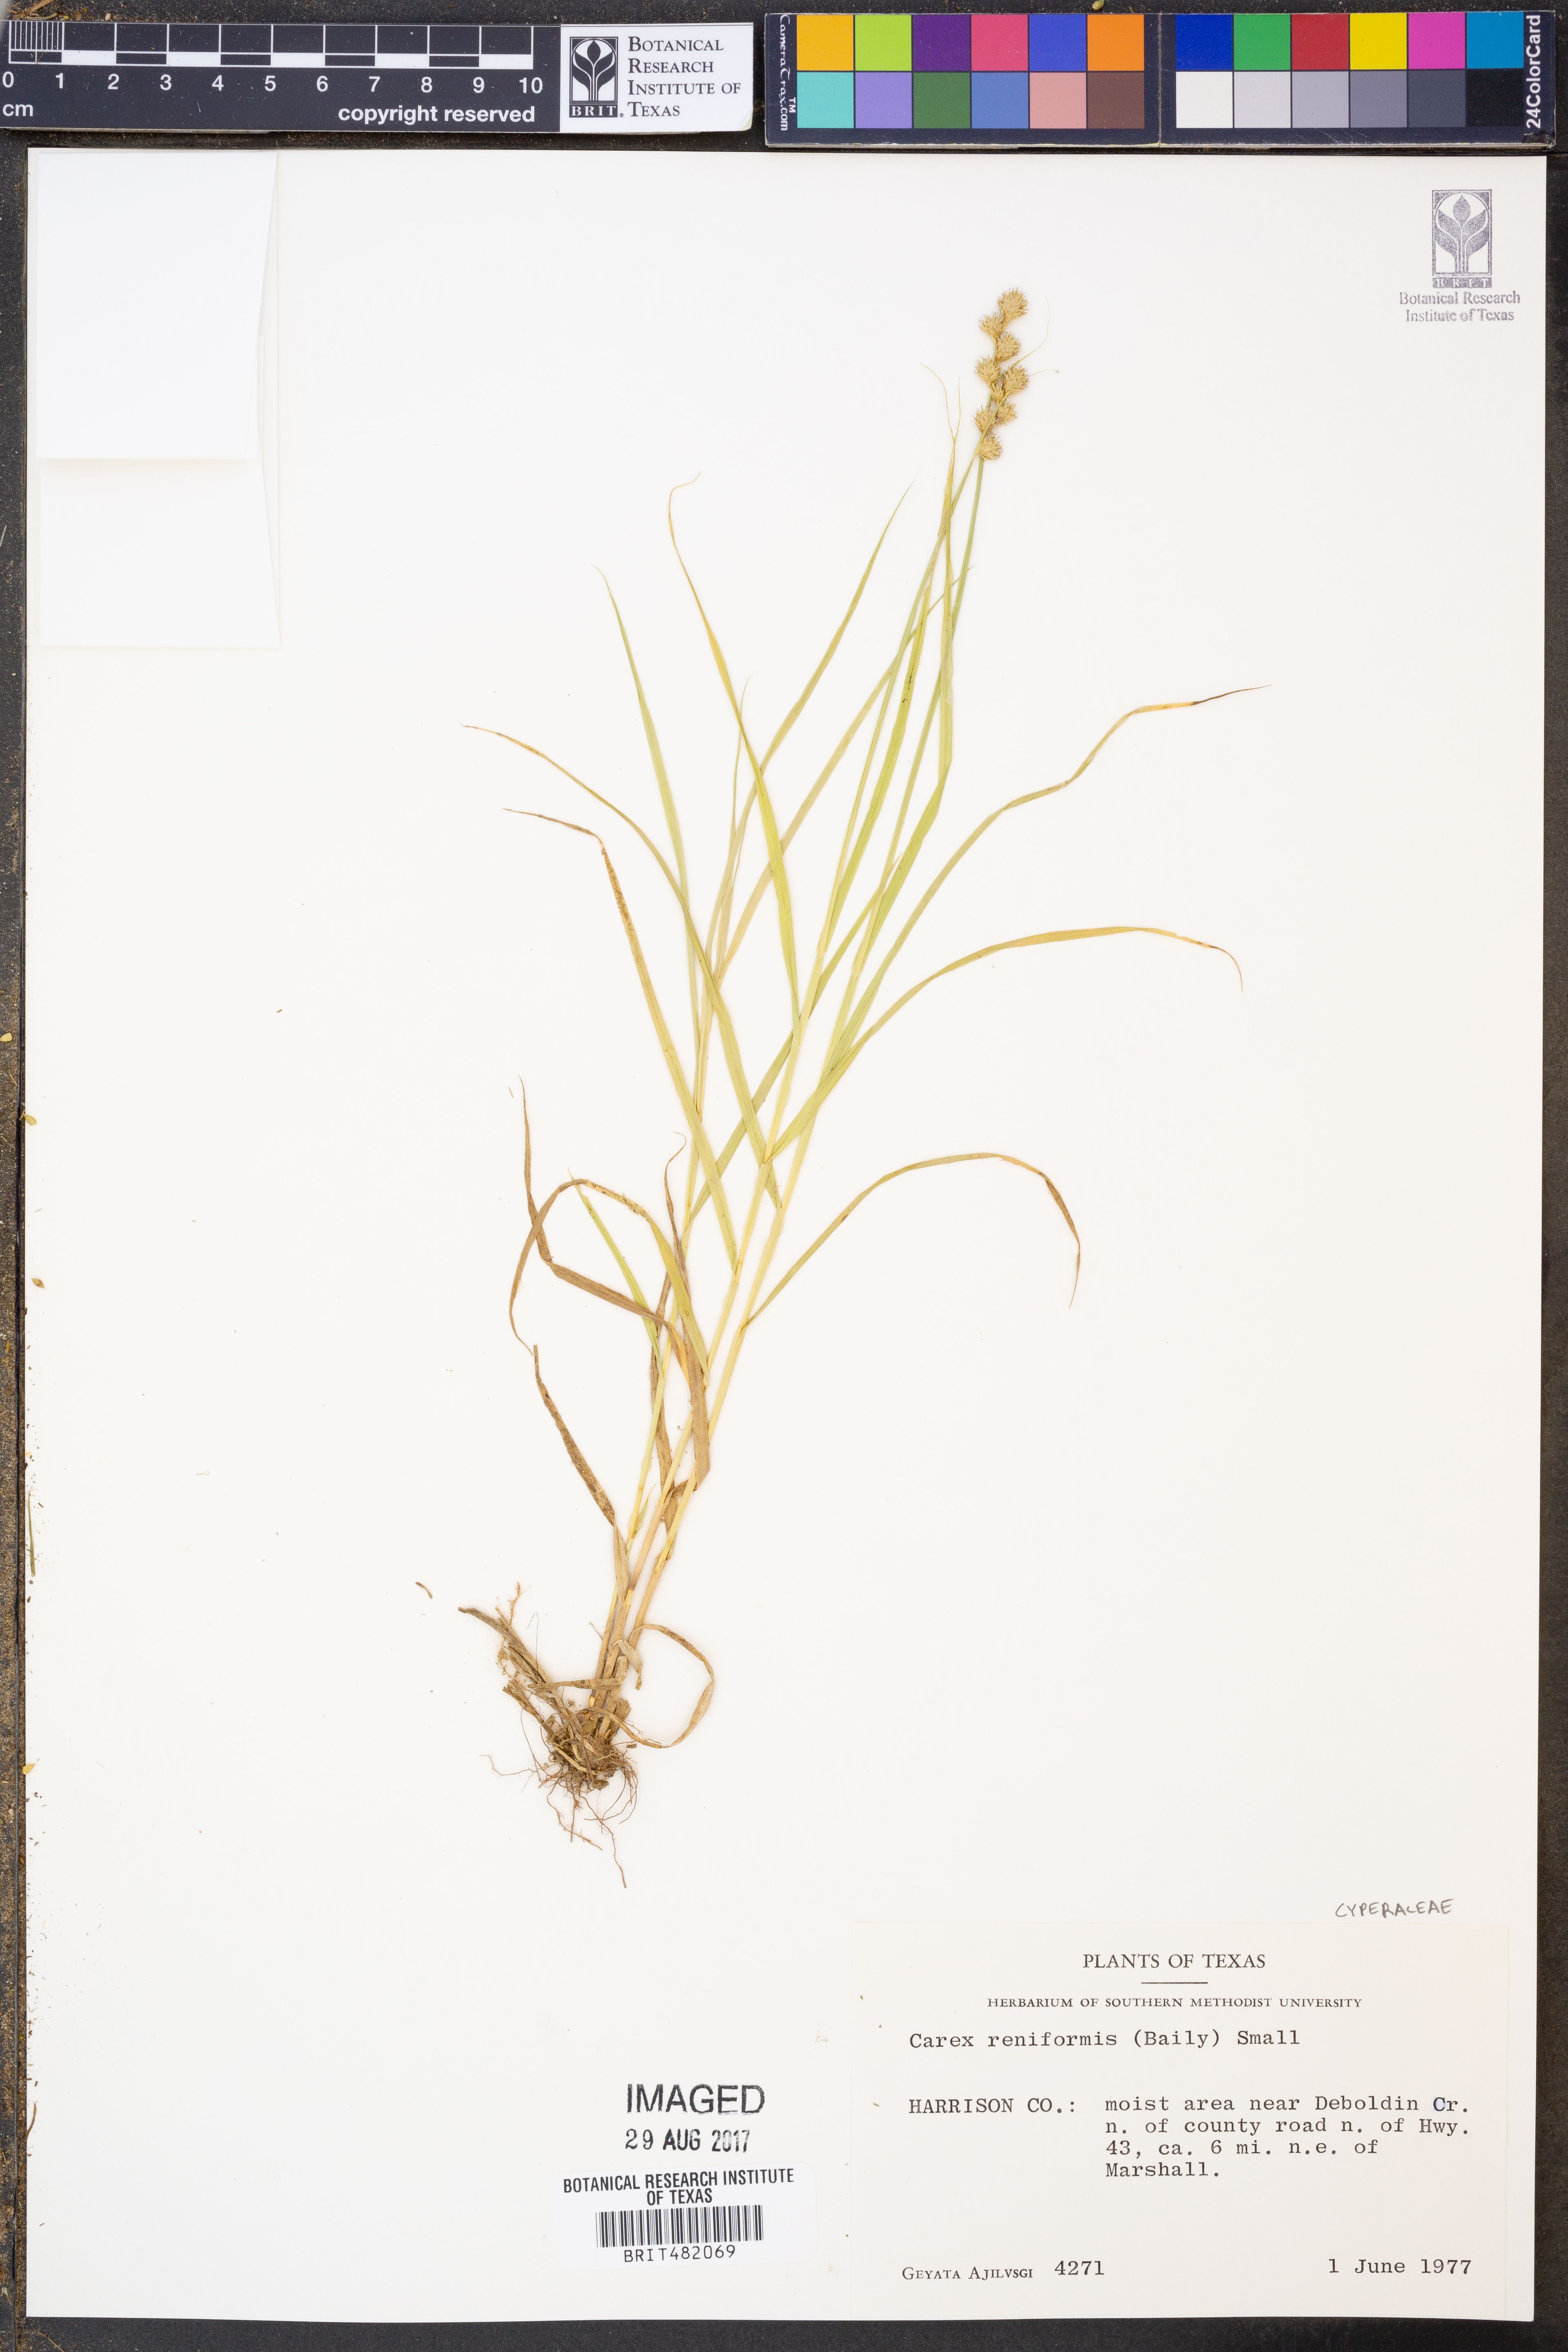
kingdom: Plantae
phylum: Tracheophyta
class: Liliopsida
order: Poales
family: Cyperaceae
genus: Carex
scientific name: Carex reniformis
